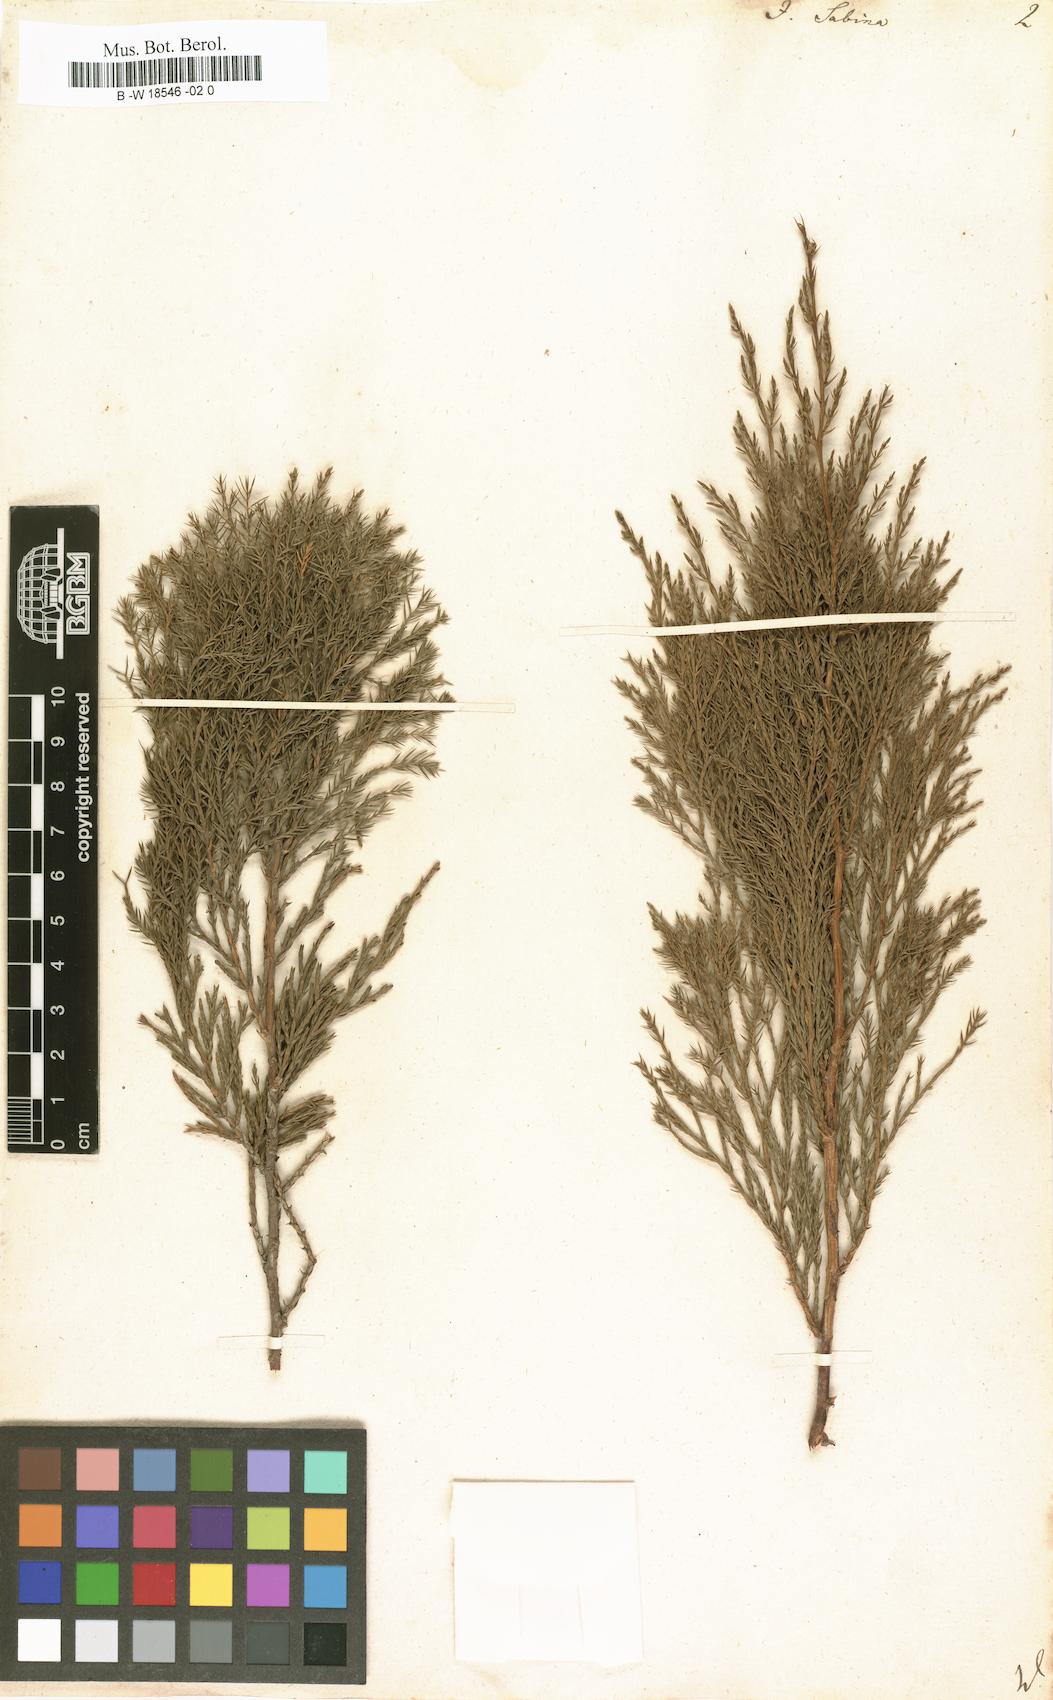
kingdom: Plantae
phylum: Tracheophyta
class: Pinopsida
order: Pinales
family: Cupressaceae
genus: Juniperus
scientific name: Juniperus sabina
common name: Savin
